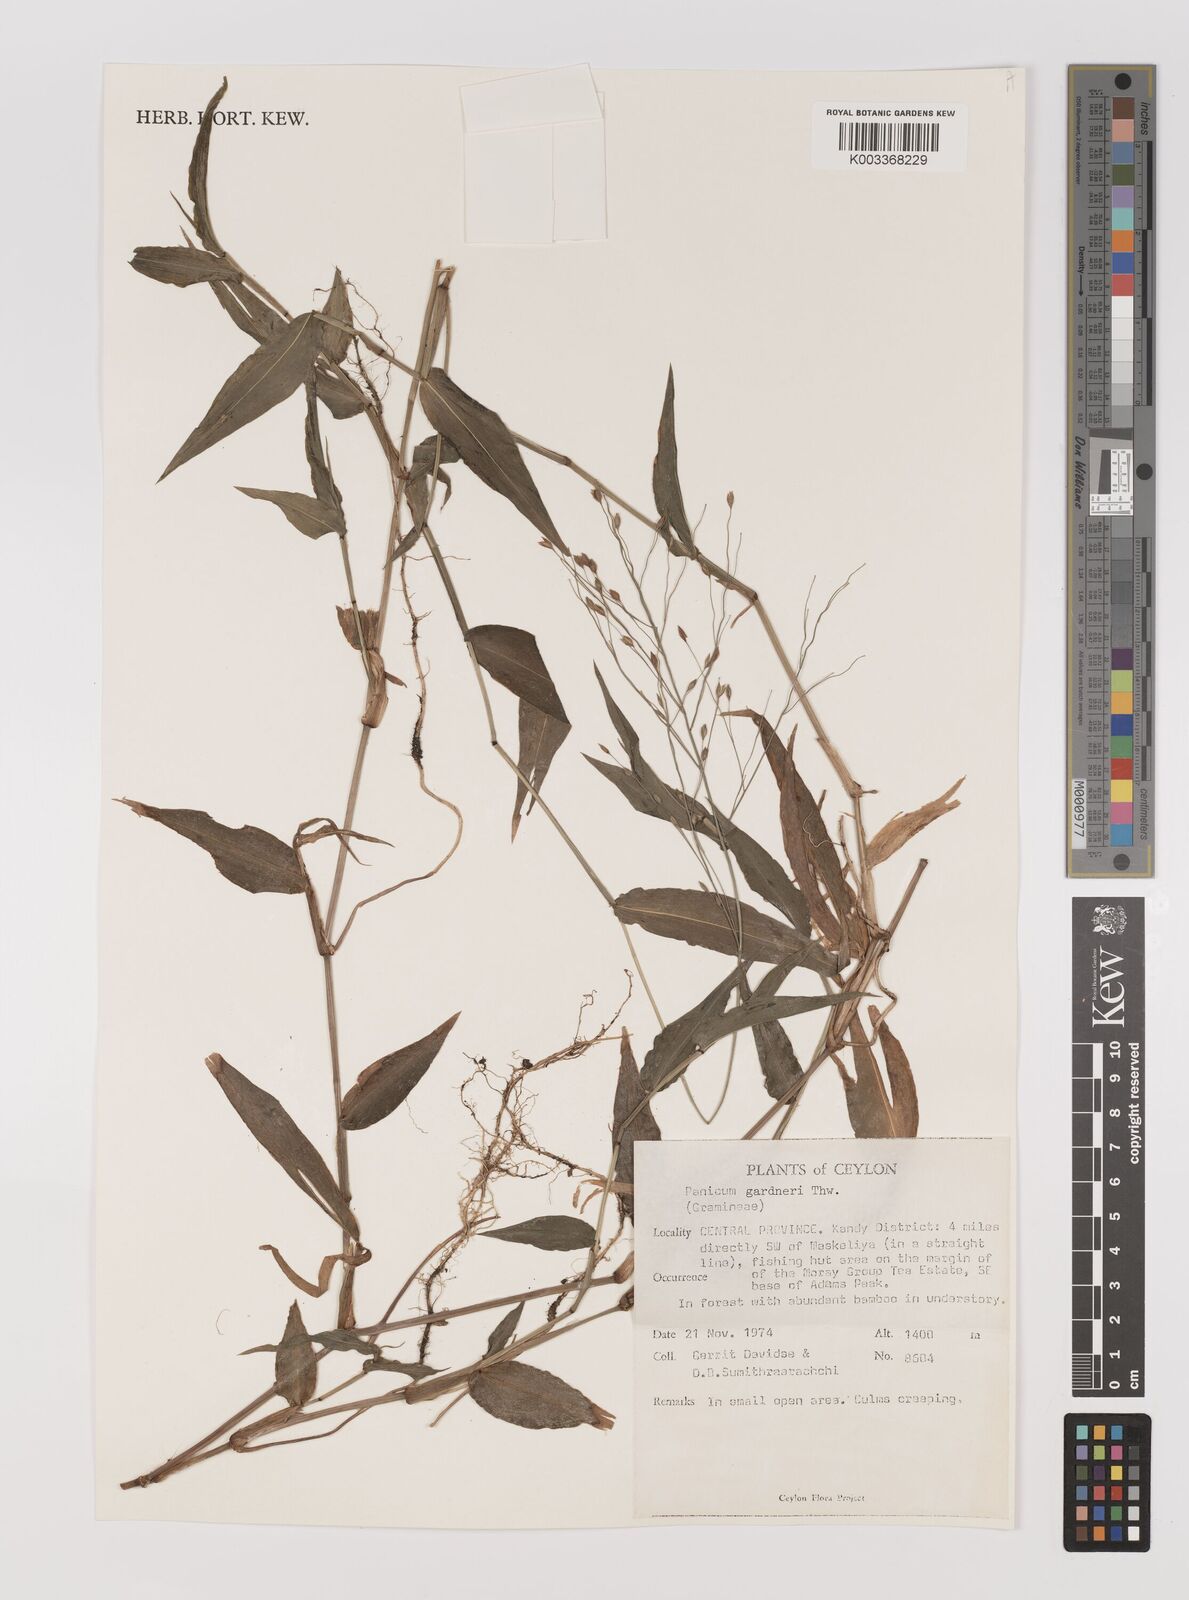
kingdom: Plantae
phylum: Tracheophyta
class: Liliopsida
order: Poales
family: Poaceae
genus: Panicum
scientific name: Panicum gardneri
